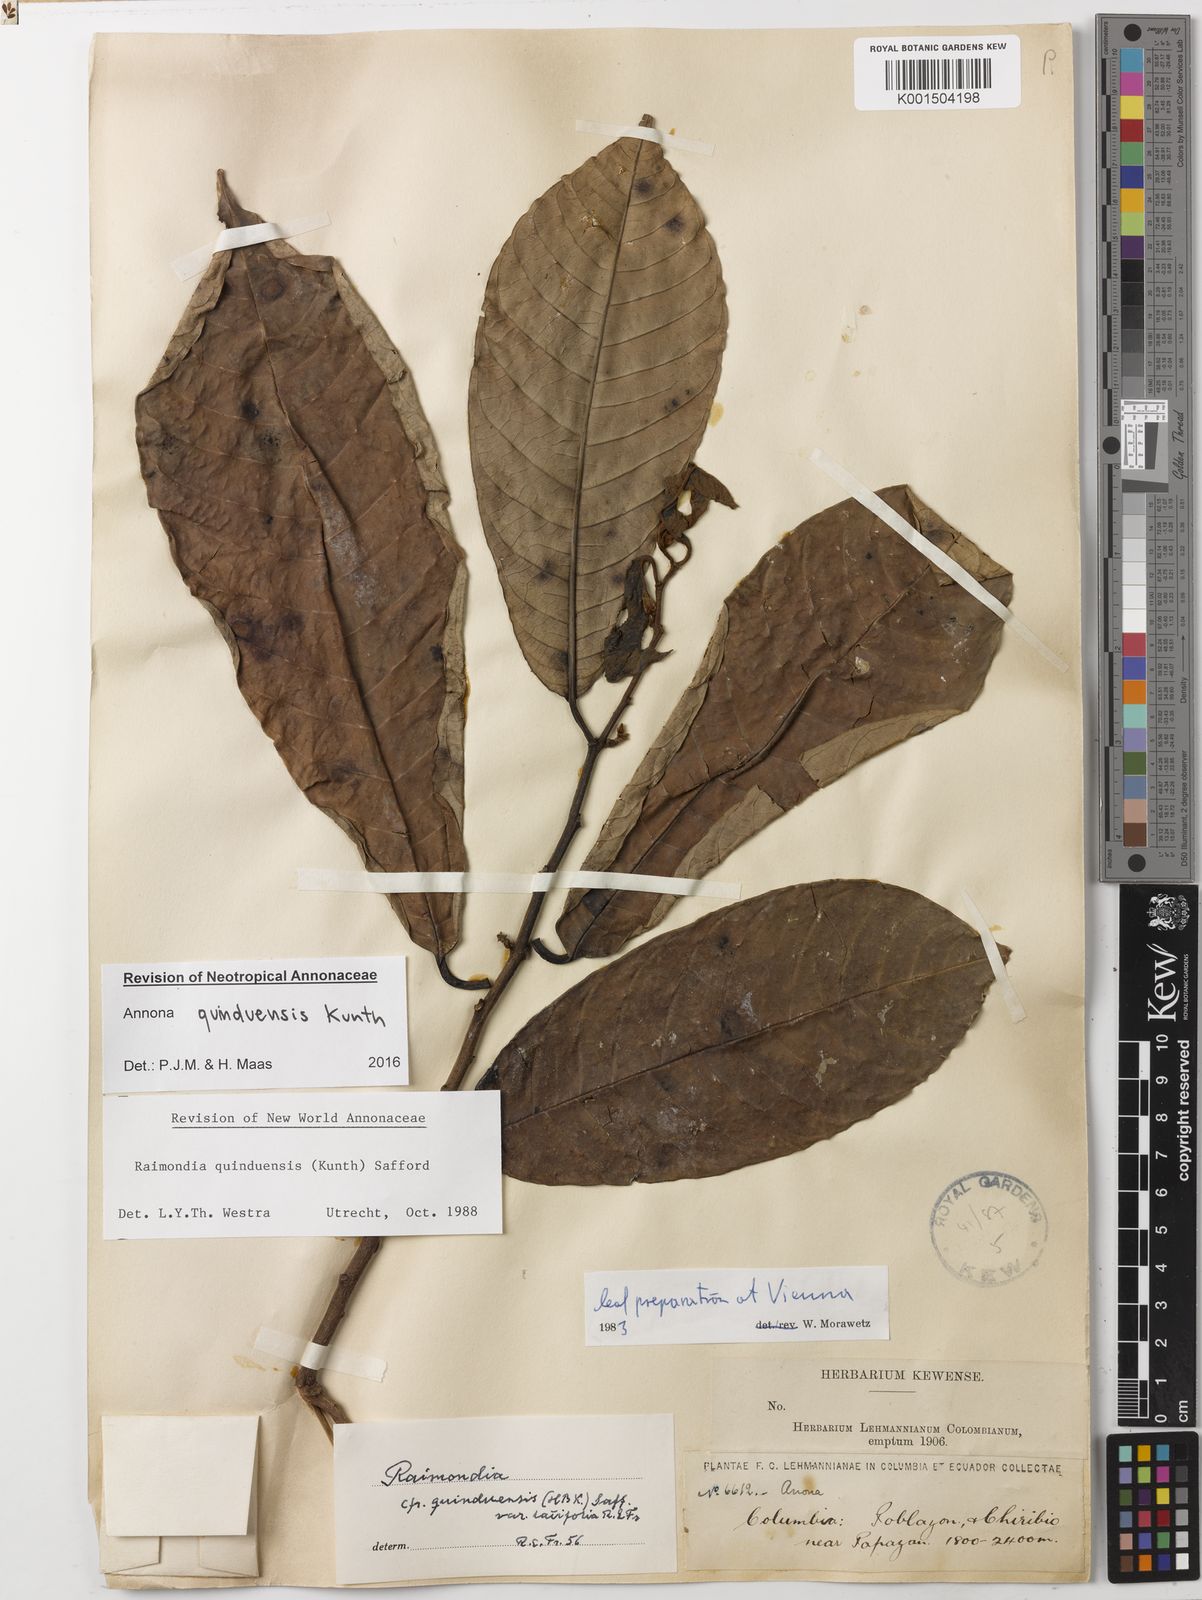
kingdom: Plantae
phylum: Tracheophyta
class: Magnoliopsida
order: Magnoliales
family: Annonaceae
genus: Annona
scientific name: Annona quinduensis
